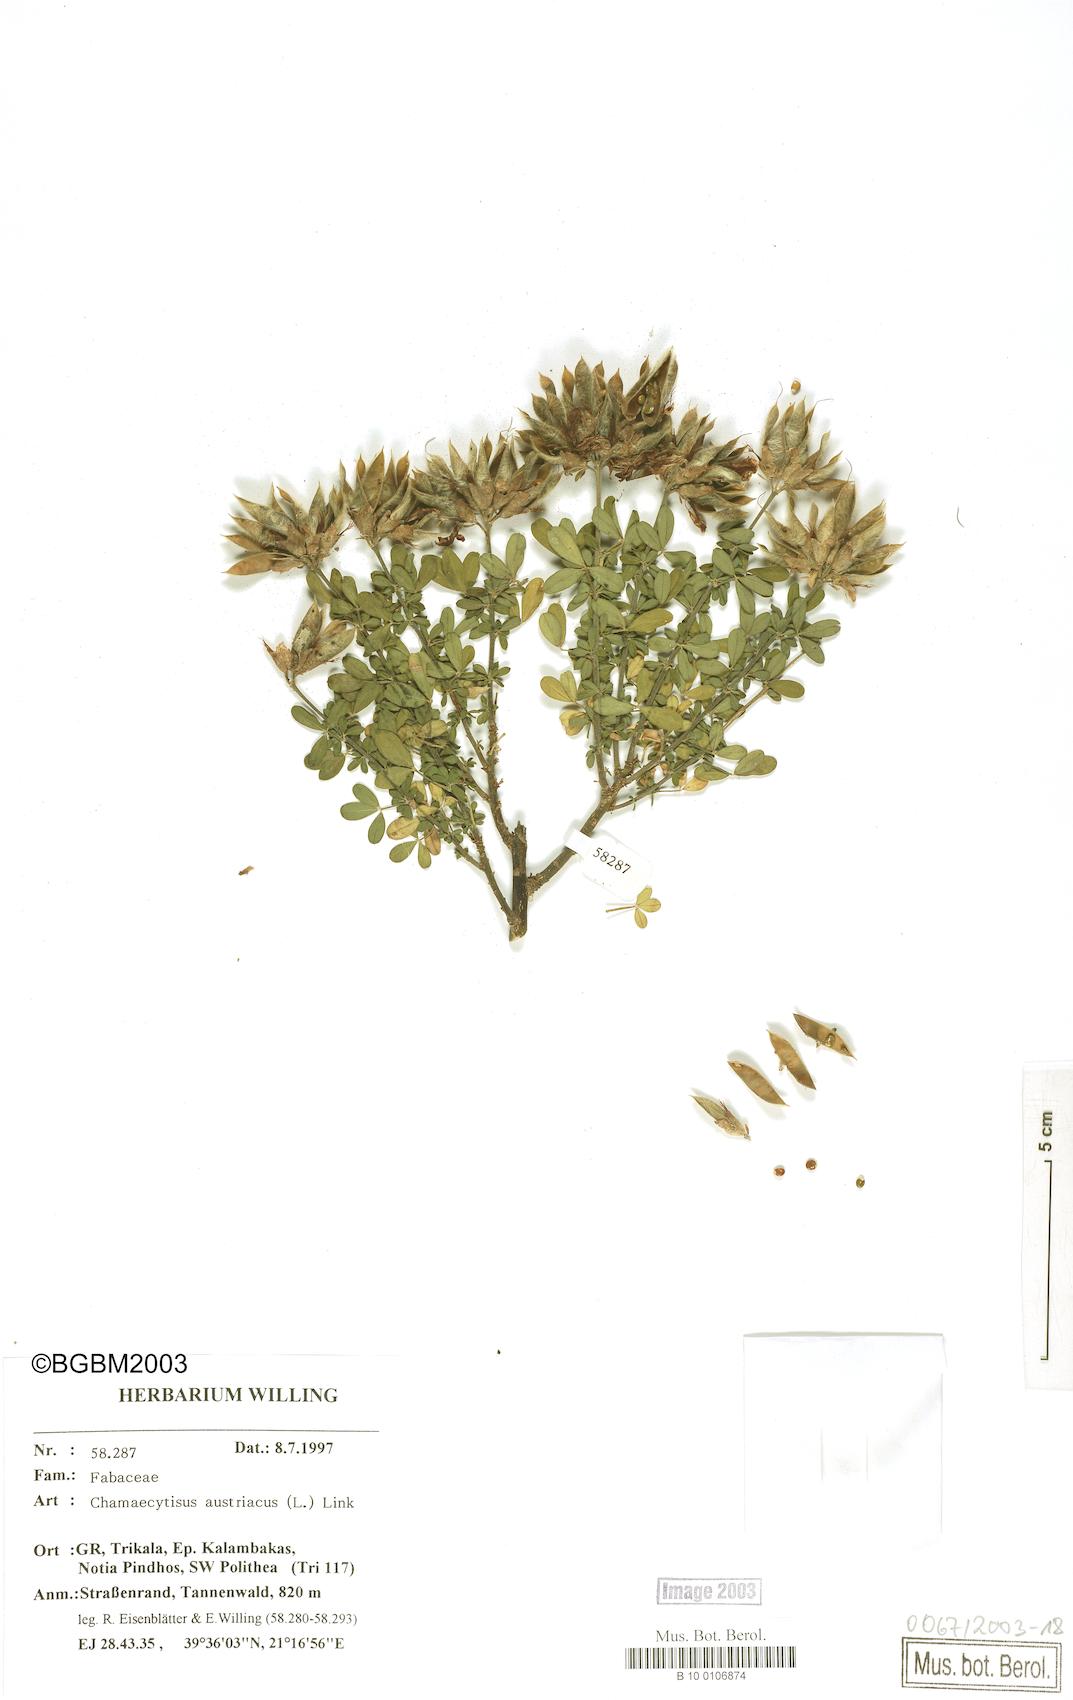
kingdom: Plantae
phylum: Tracheophyta
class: Magnoliopsida
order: Fabales
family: Fabaceae
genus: Chamaecytisus
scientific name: Chamaecytisus austriacus
